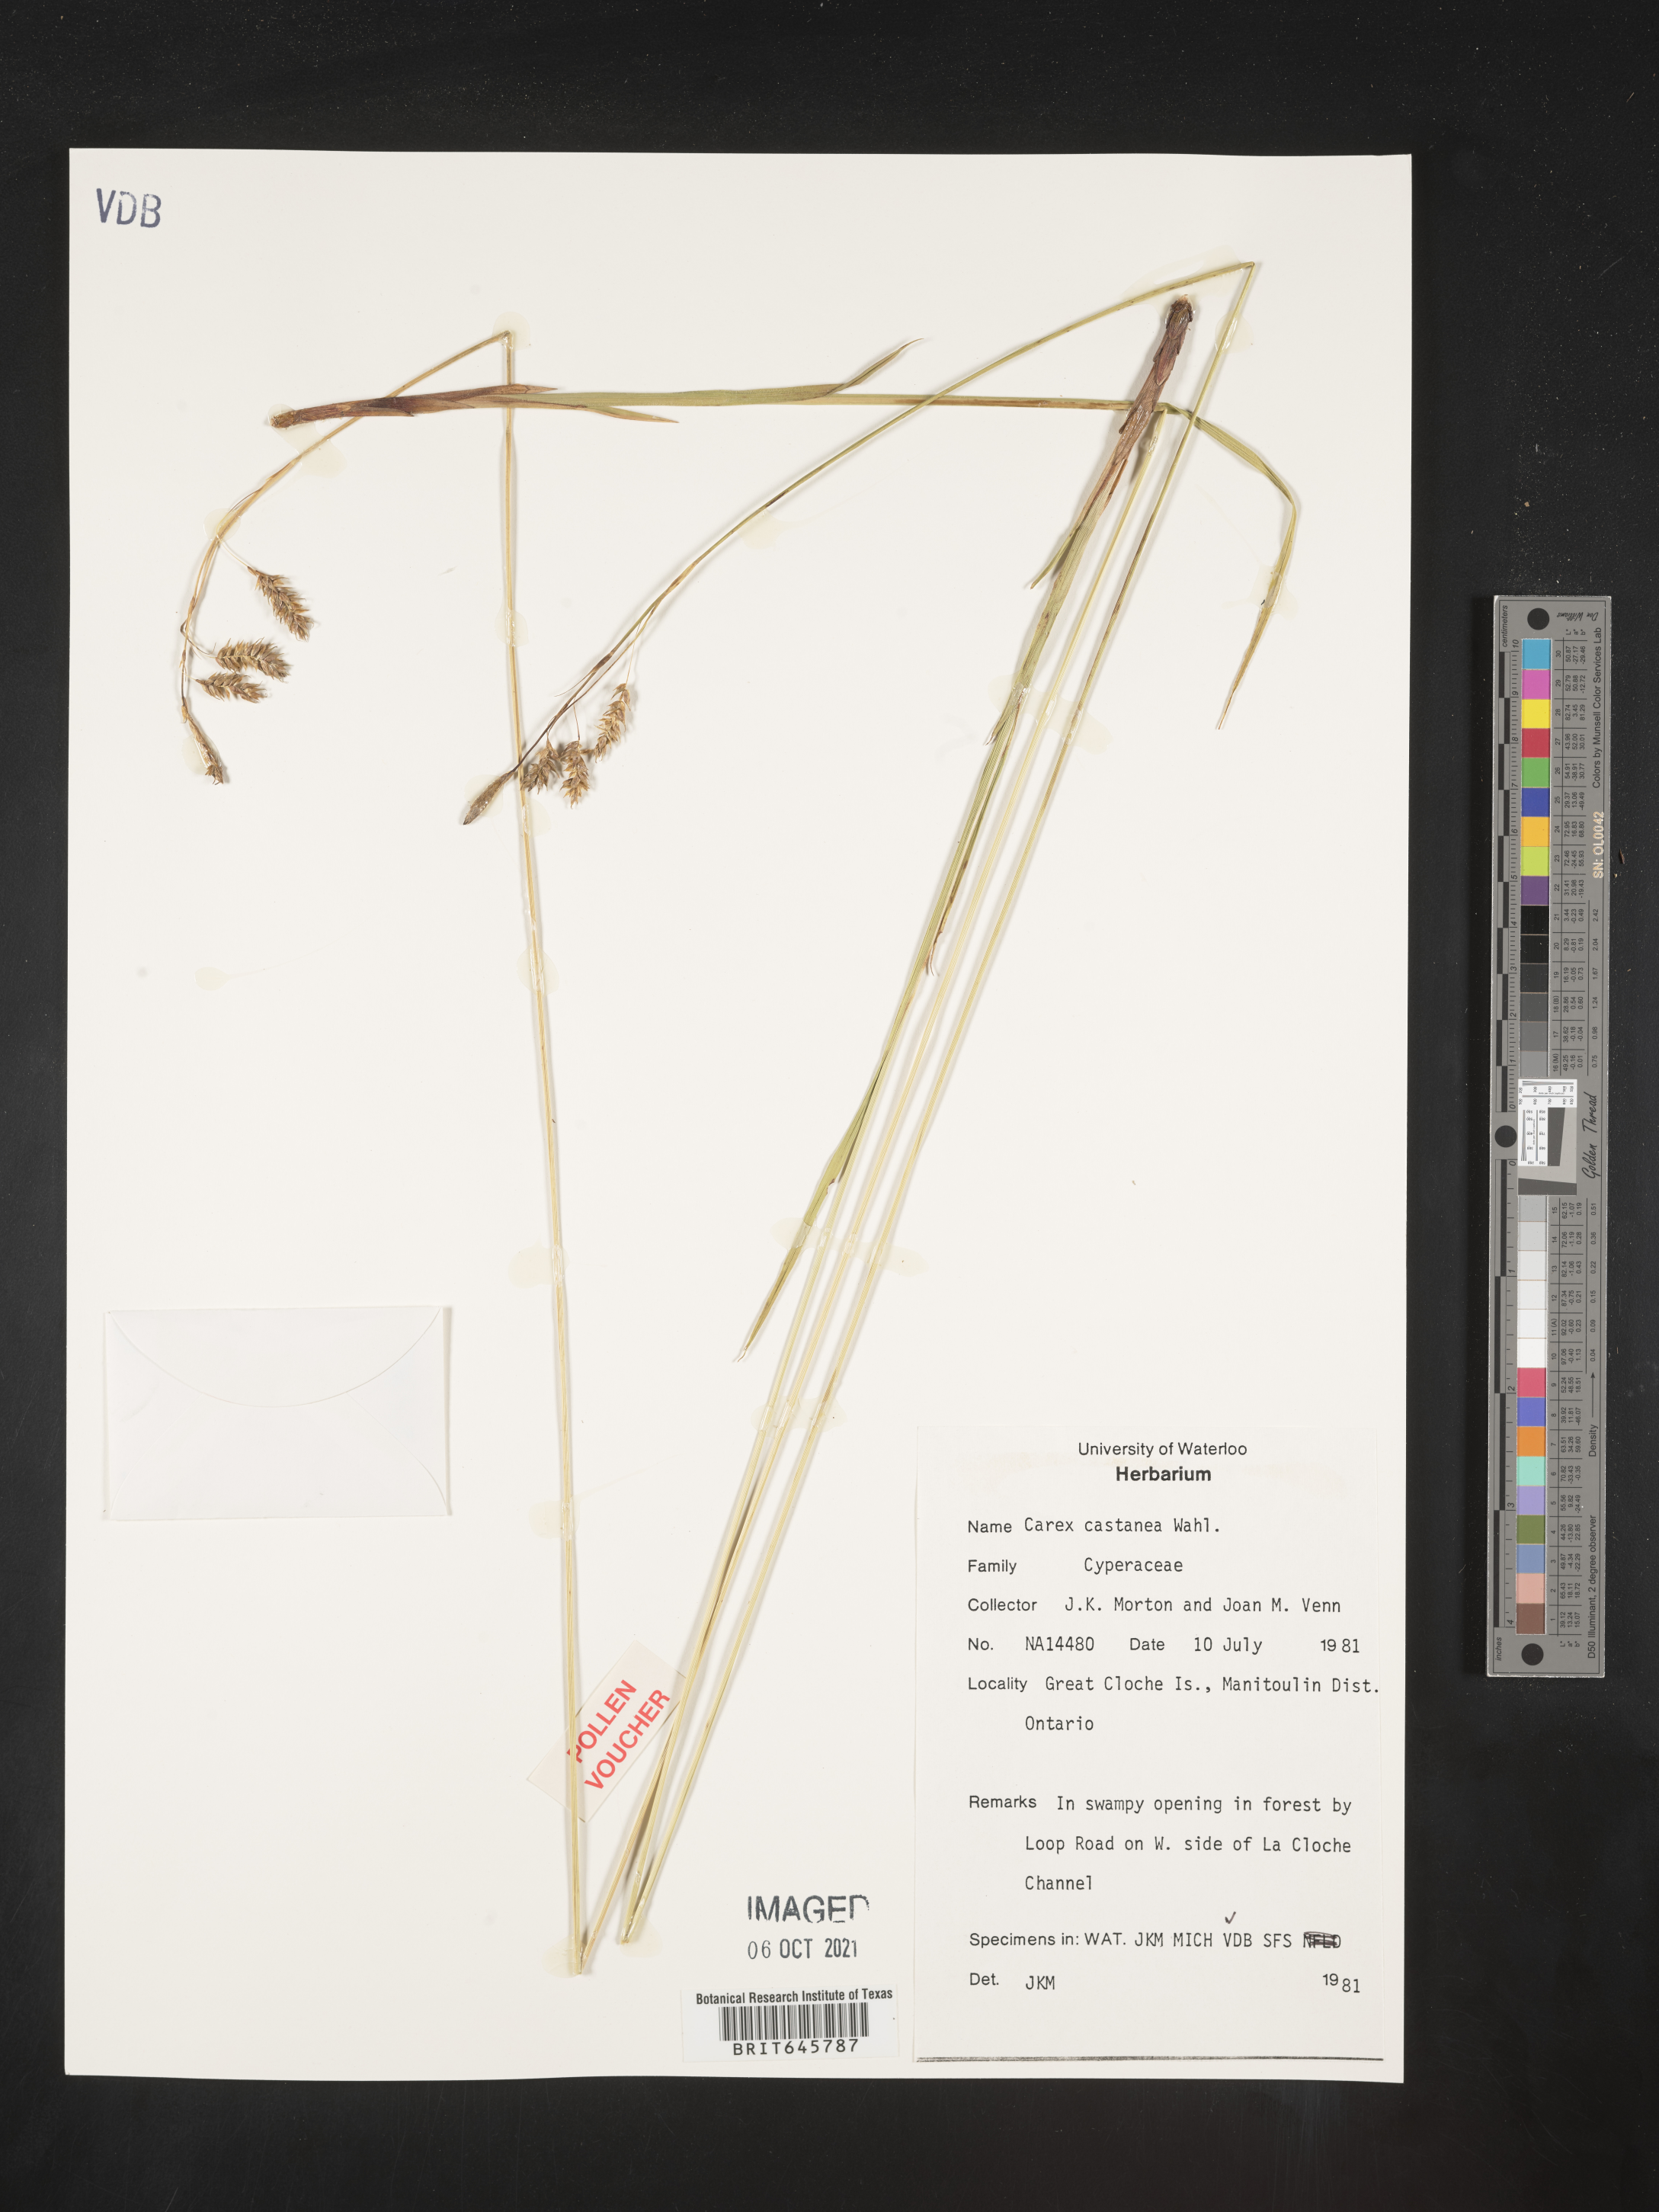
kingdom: Plantae
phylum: Tracheophyta
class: Liliopsida
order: Poales
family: Cyperaceae
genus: Carex
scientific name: Carex castanea
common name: Chestnut sedge
